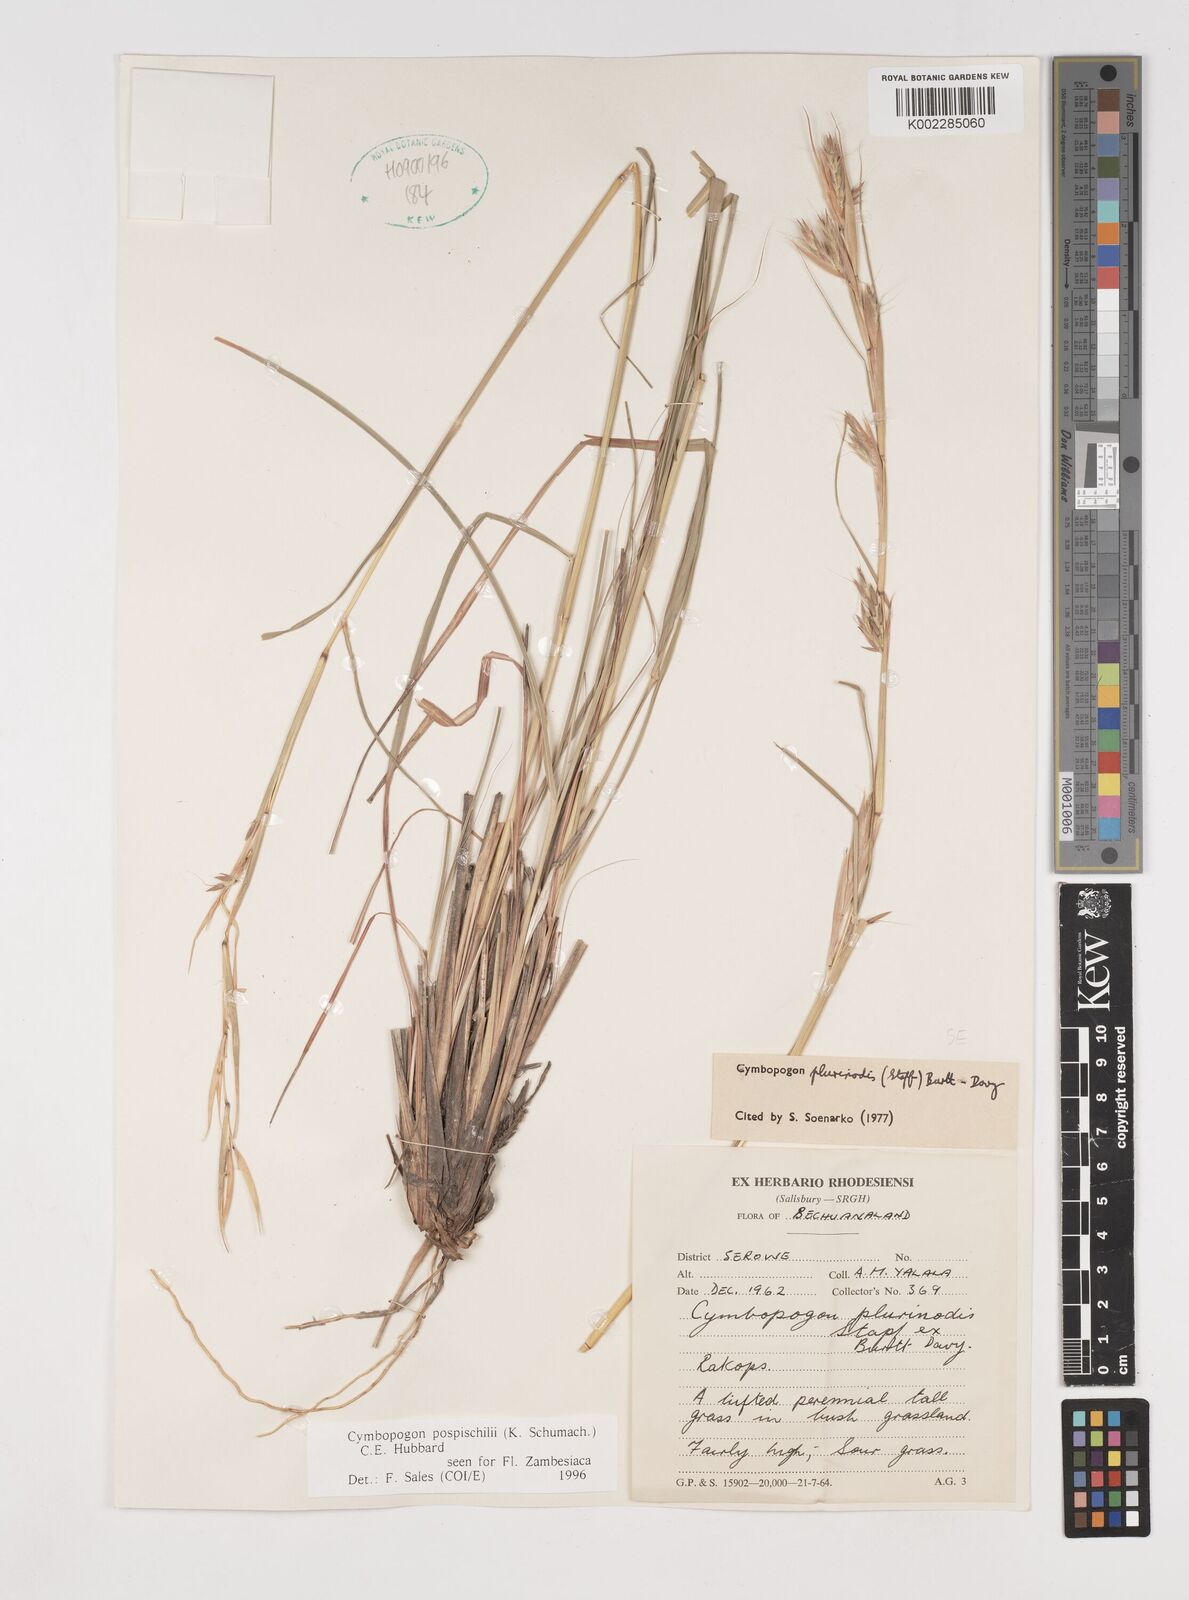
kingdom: Plantae
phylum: Tracheophyta
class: Liliopsida
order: Poales
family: Poaceae
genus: Cymbopogon
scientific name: Cymbopogon pospischilii
